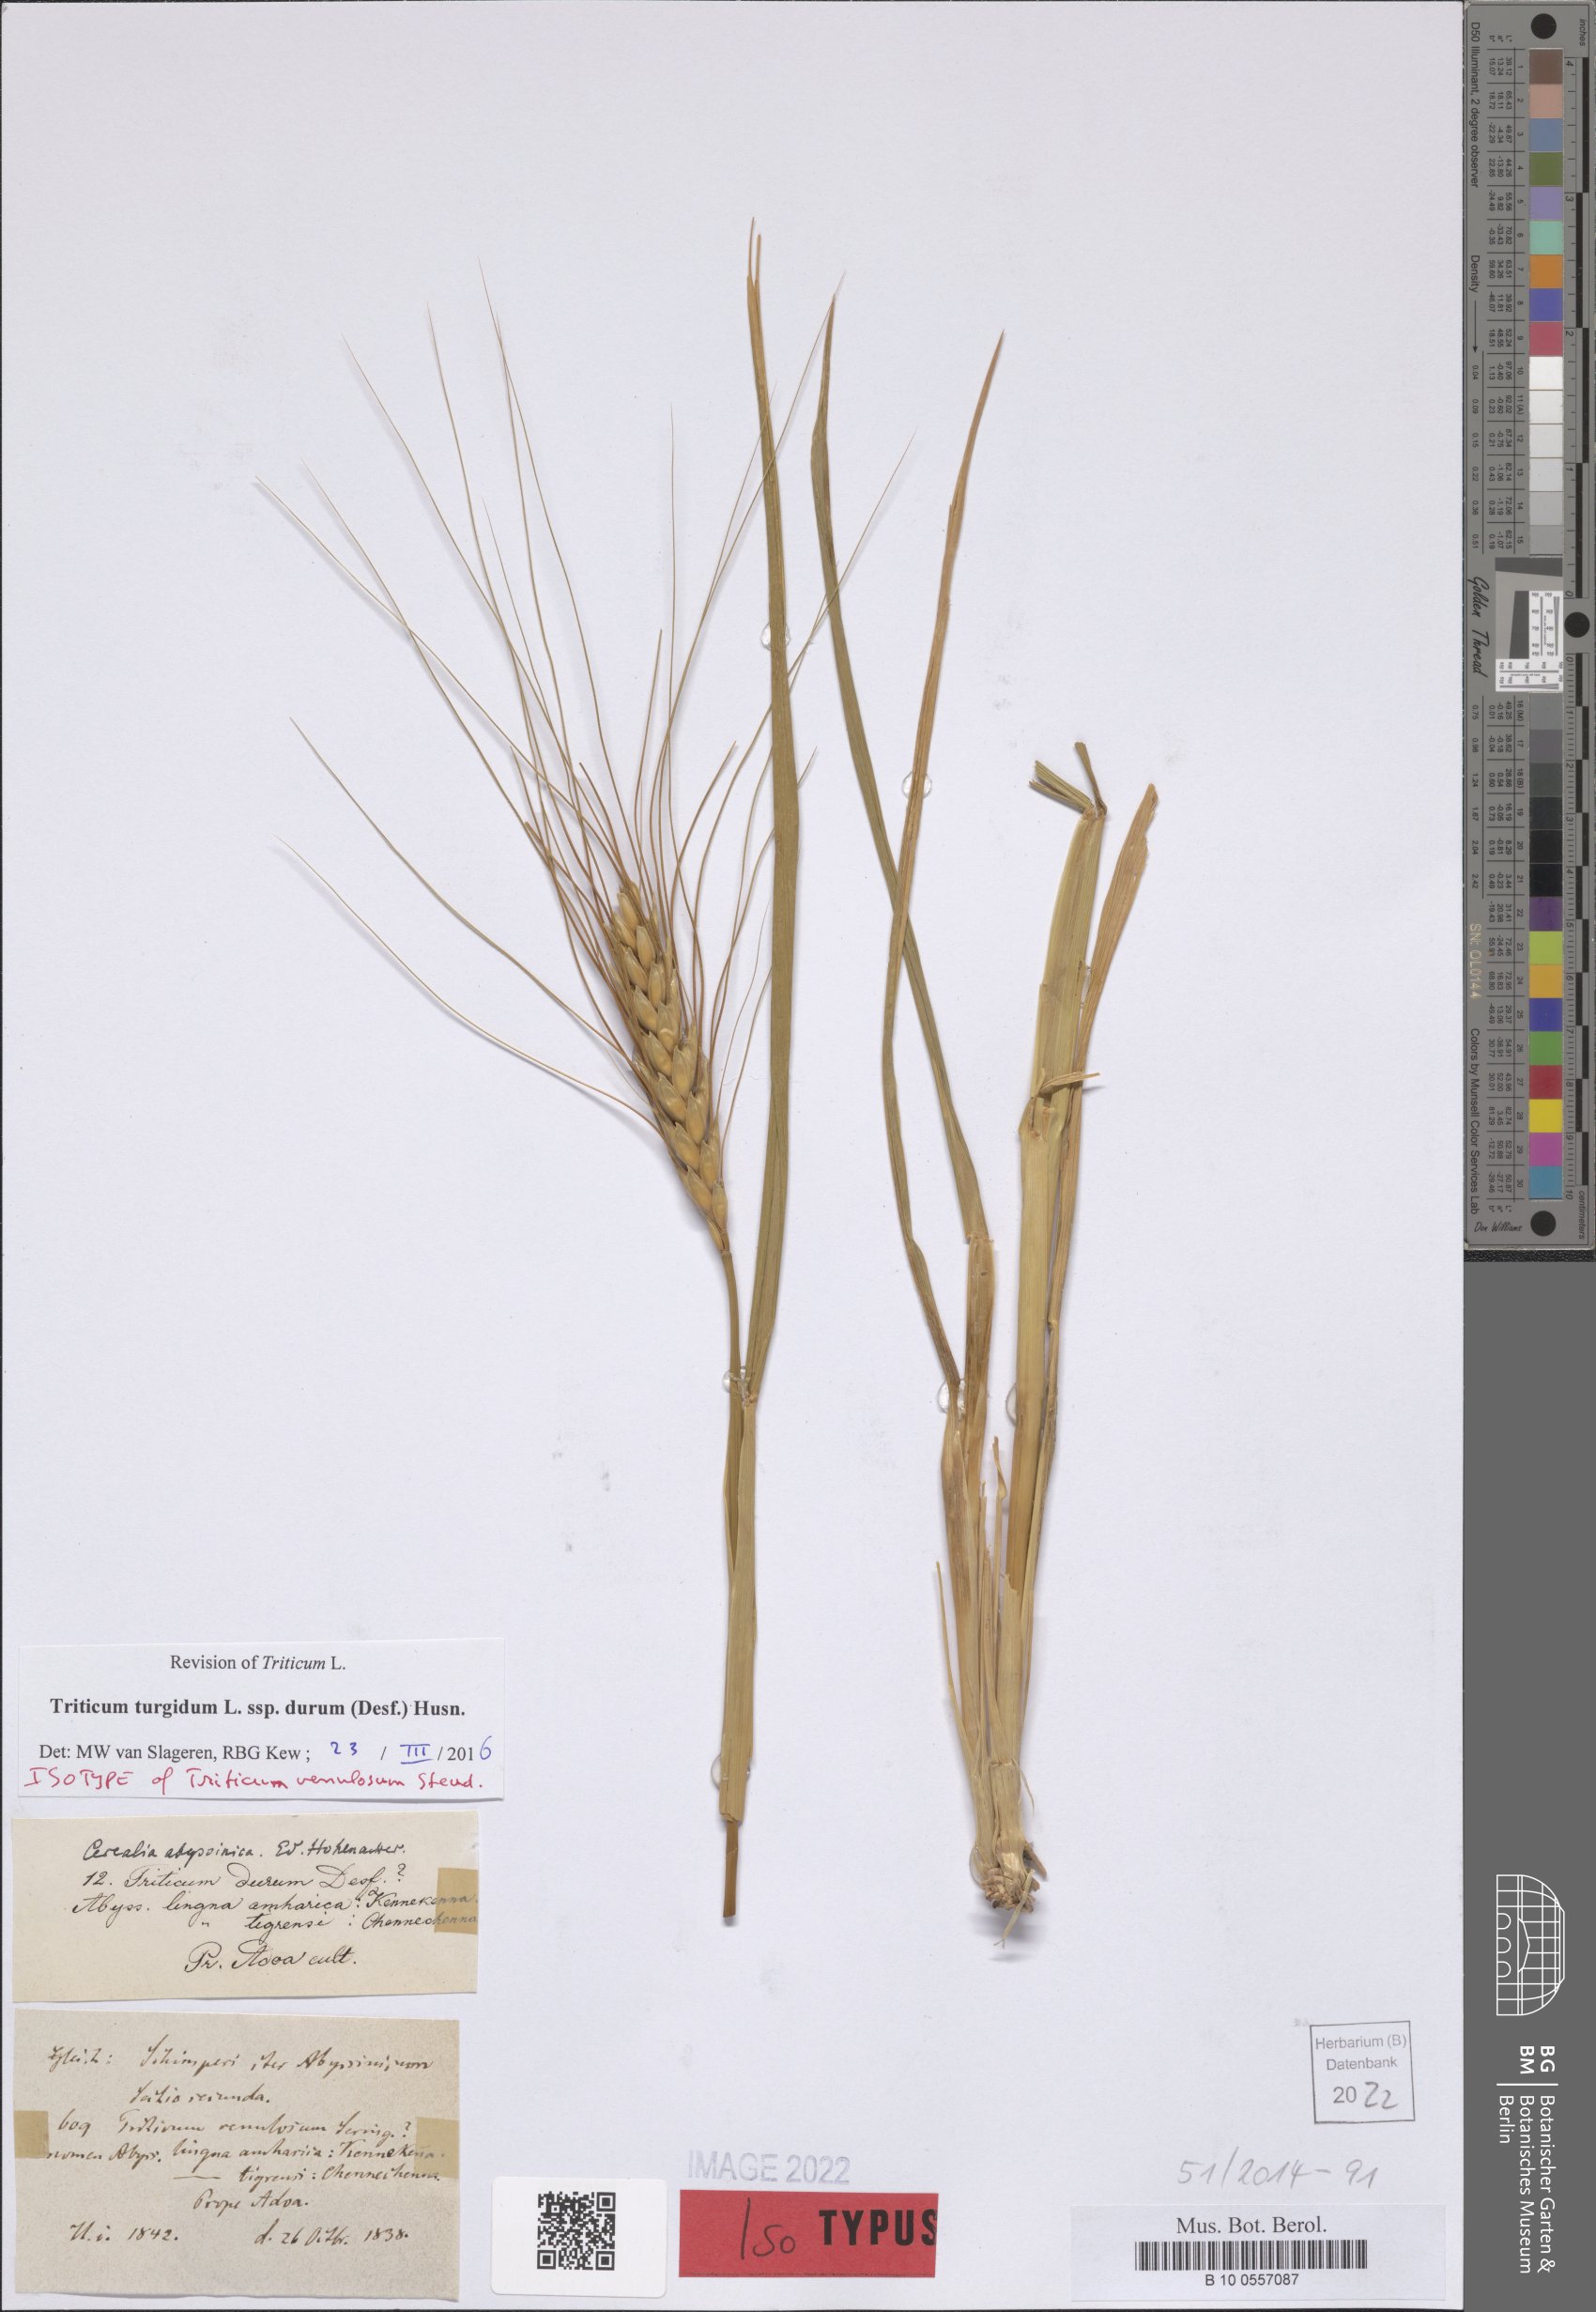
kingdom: Plantae
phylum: Tracheophyta
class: Liliopsida
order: Poales
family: Poaceae
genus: Triticum
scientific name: Triticum turgidum
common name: Rivet wheat
